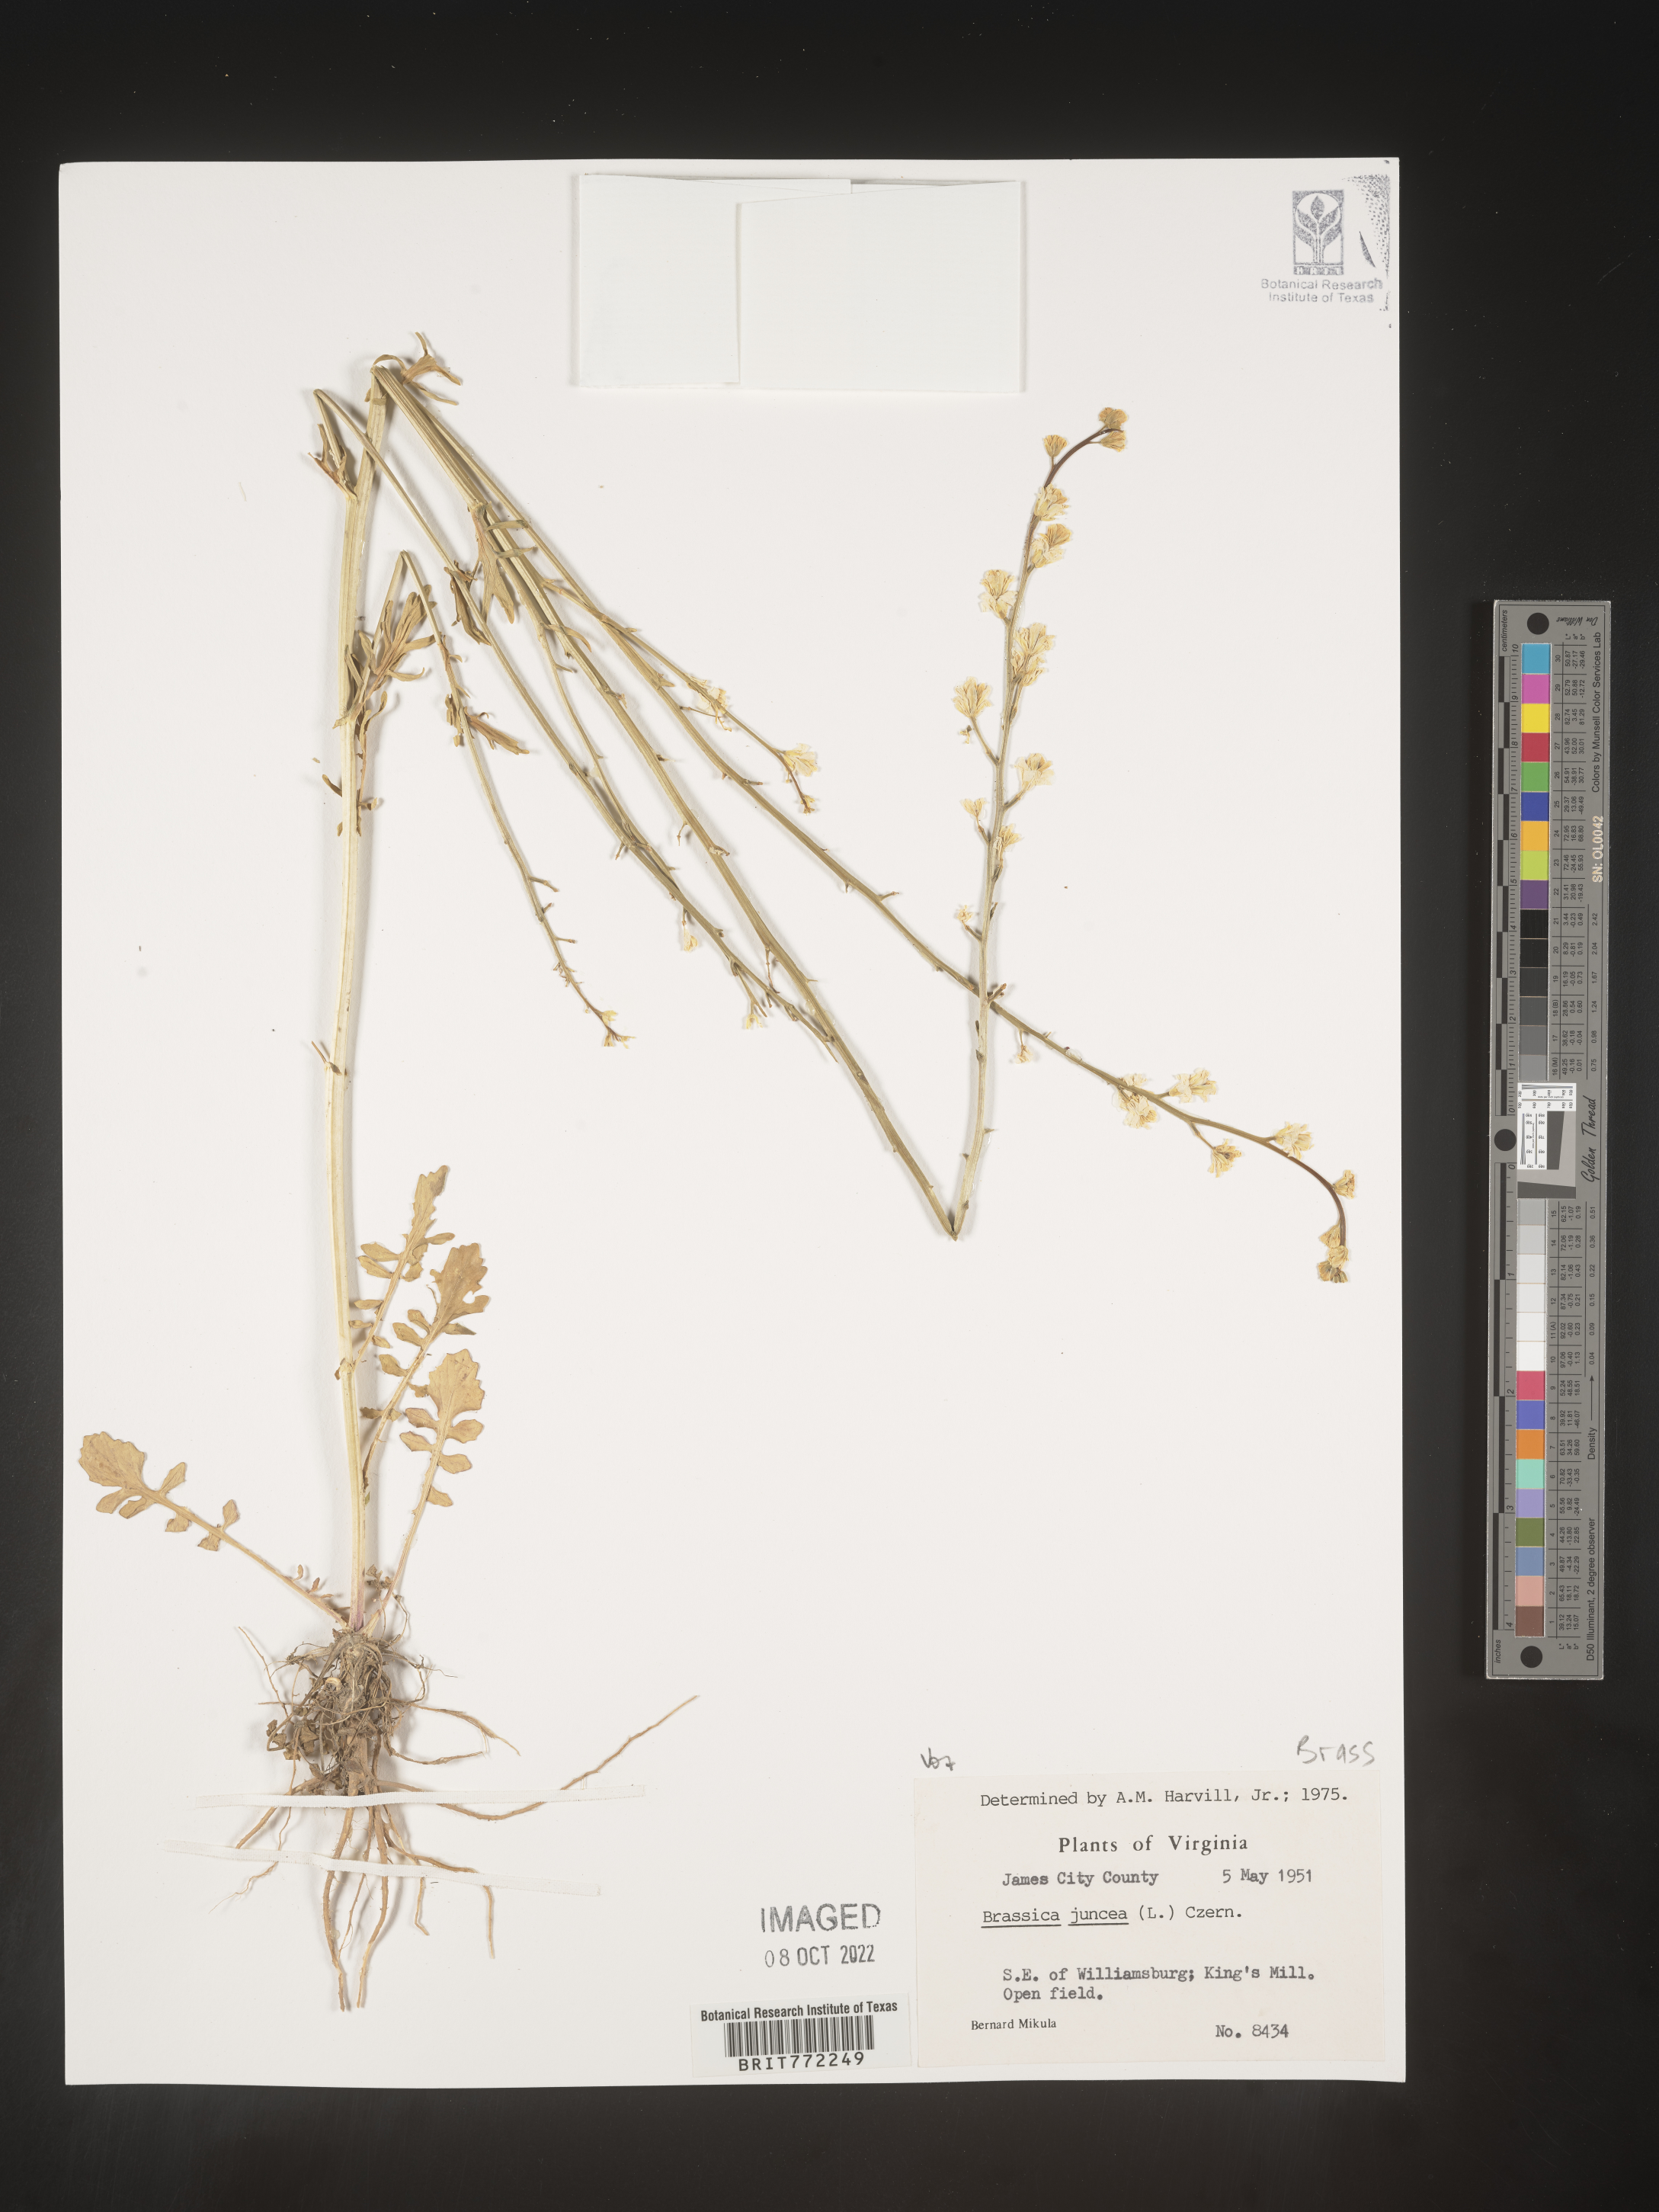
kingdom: Plantae
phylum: Tracheophyta
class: Magnoliopsida
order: Brassicales
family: Brassicaceae
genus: Brassica
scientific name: Brassica juncea
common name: Brown mustard
